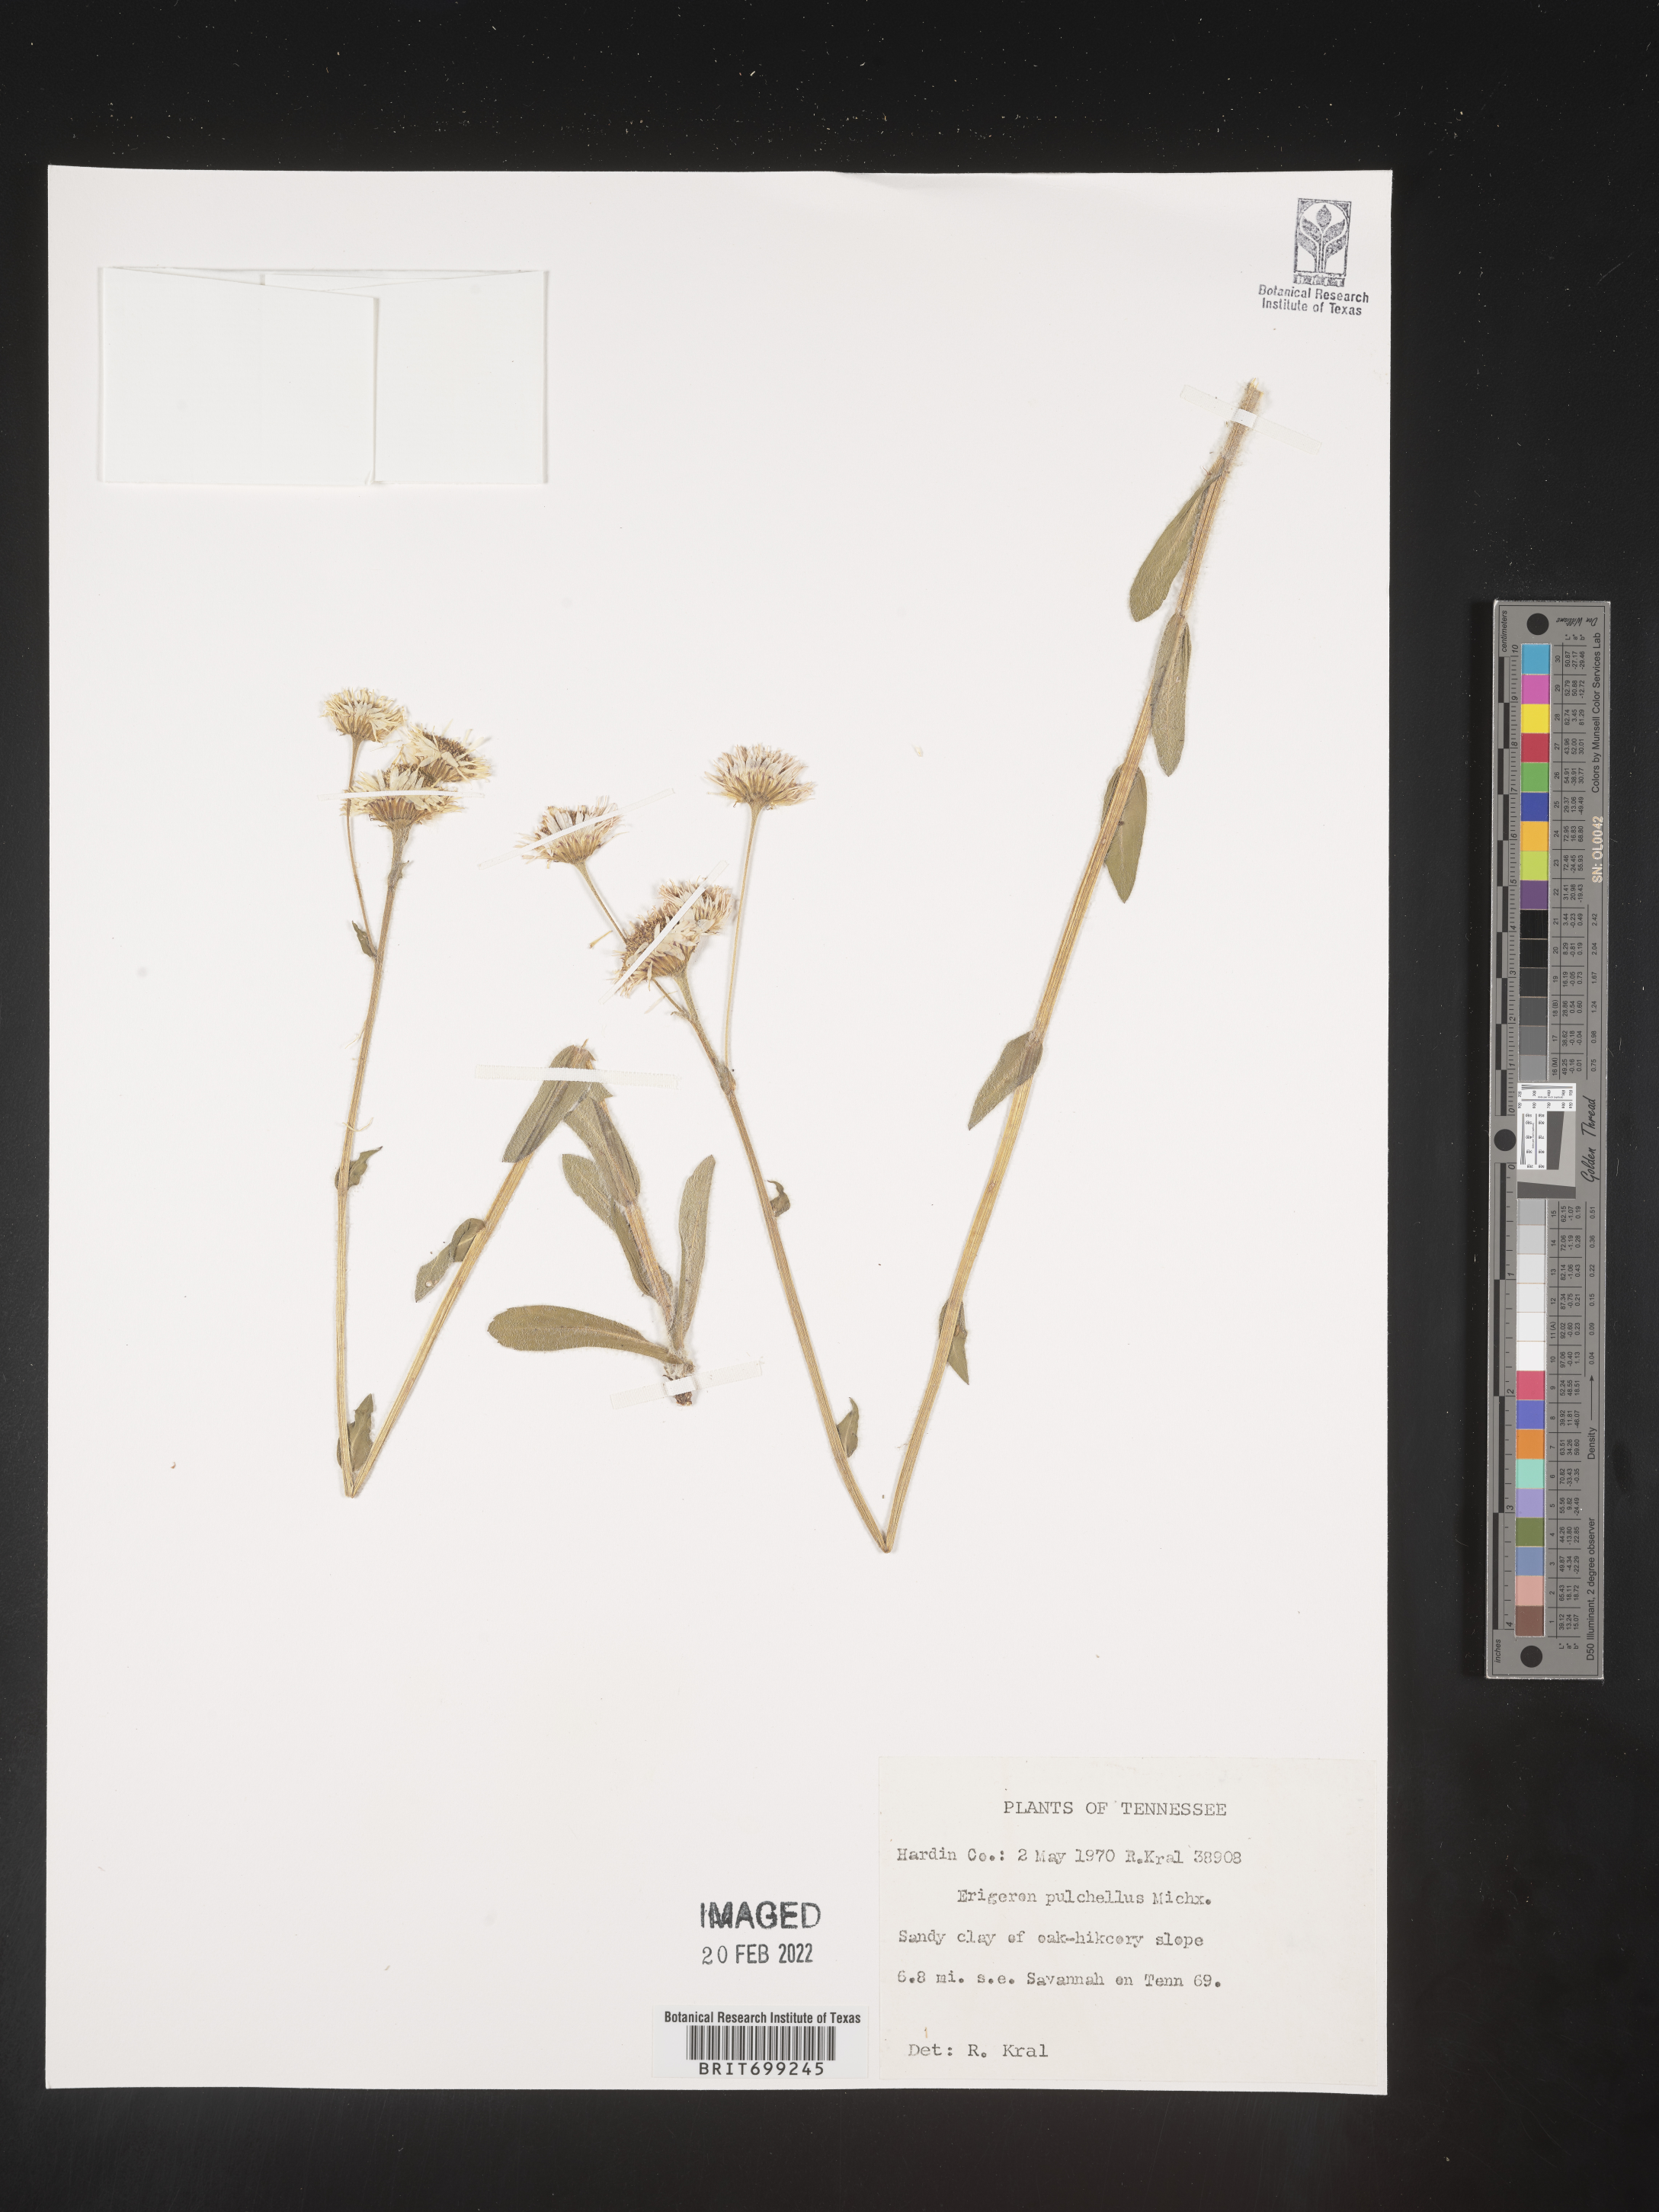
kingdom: Plantae
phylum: Tracheophyta
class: Magnoliopsida
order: Asterales
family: Asteraceae
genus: Erigeron
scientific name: Erigeron pulchellus
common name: Hairy fleabane
